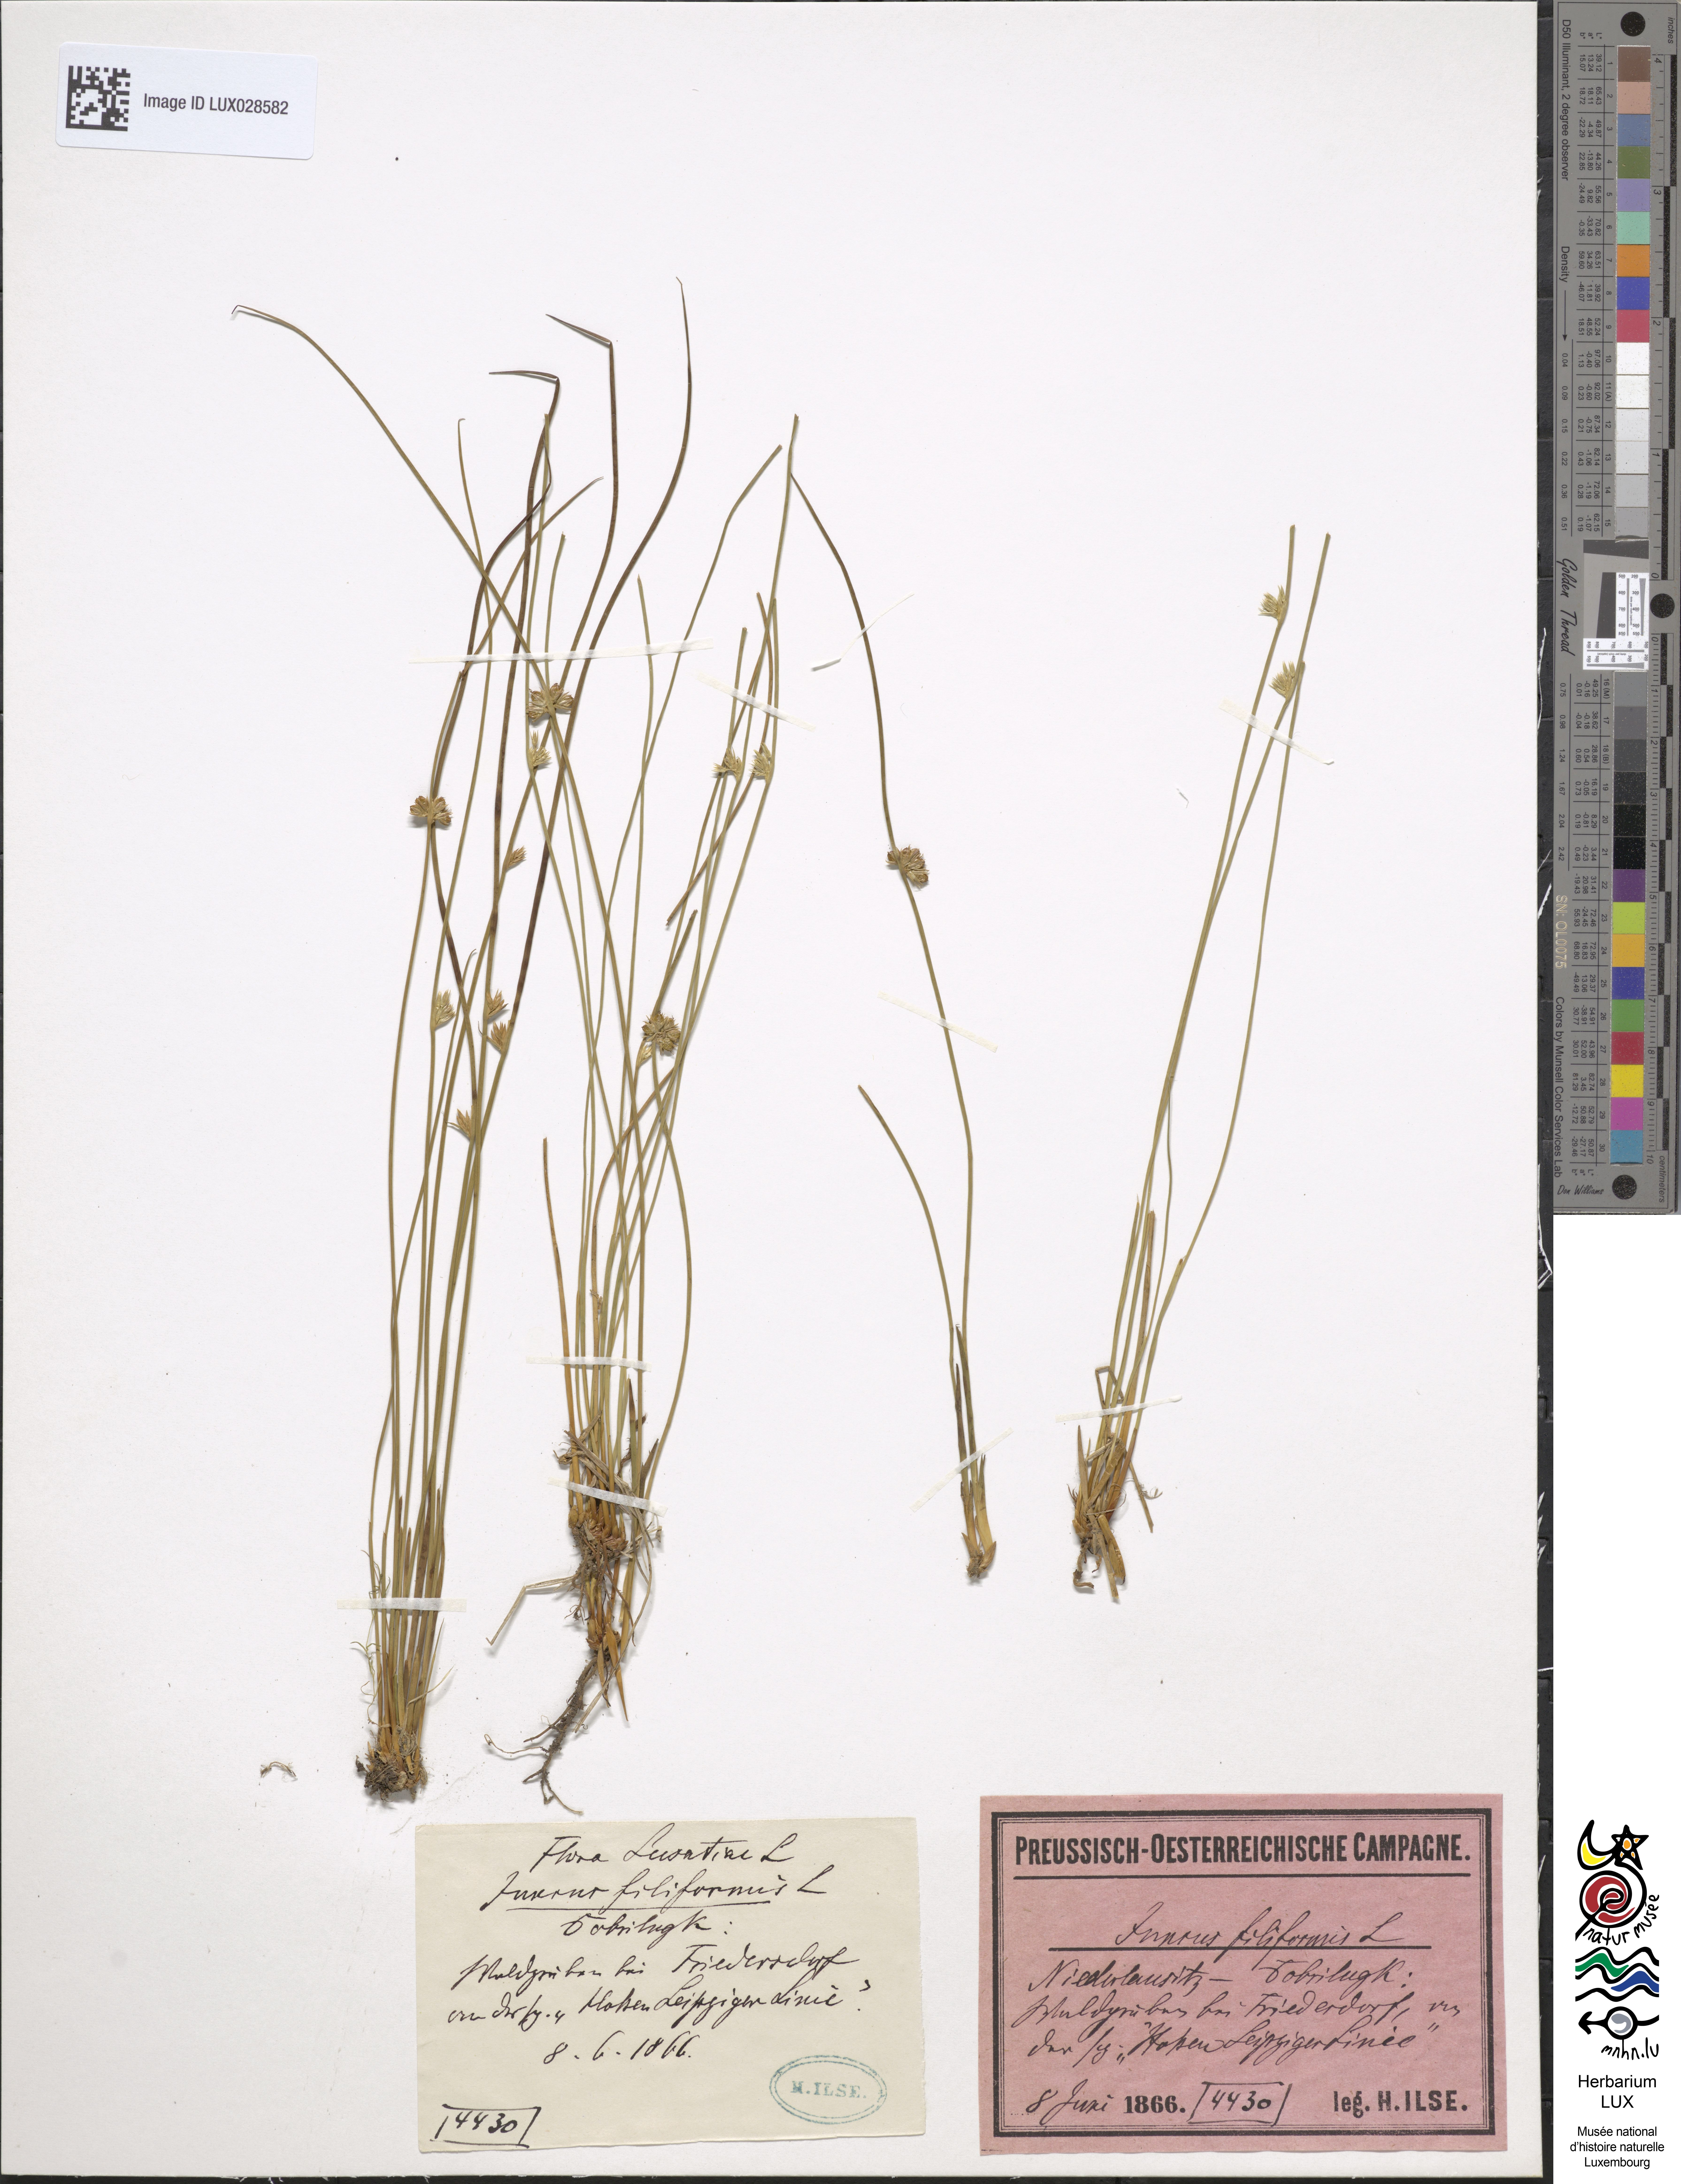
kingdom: Plantae
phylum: Tracheophyta
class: Liliopsida
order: Poales
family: Juncaceae
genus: Juncus
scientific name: Juncus filiformis
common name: Thread rush
